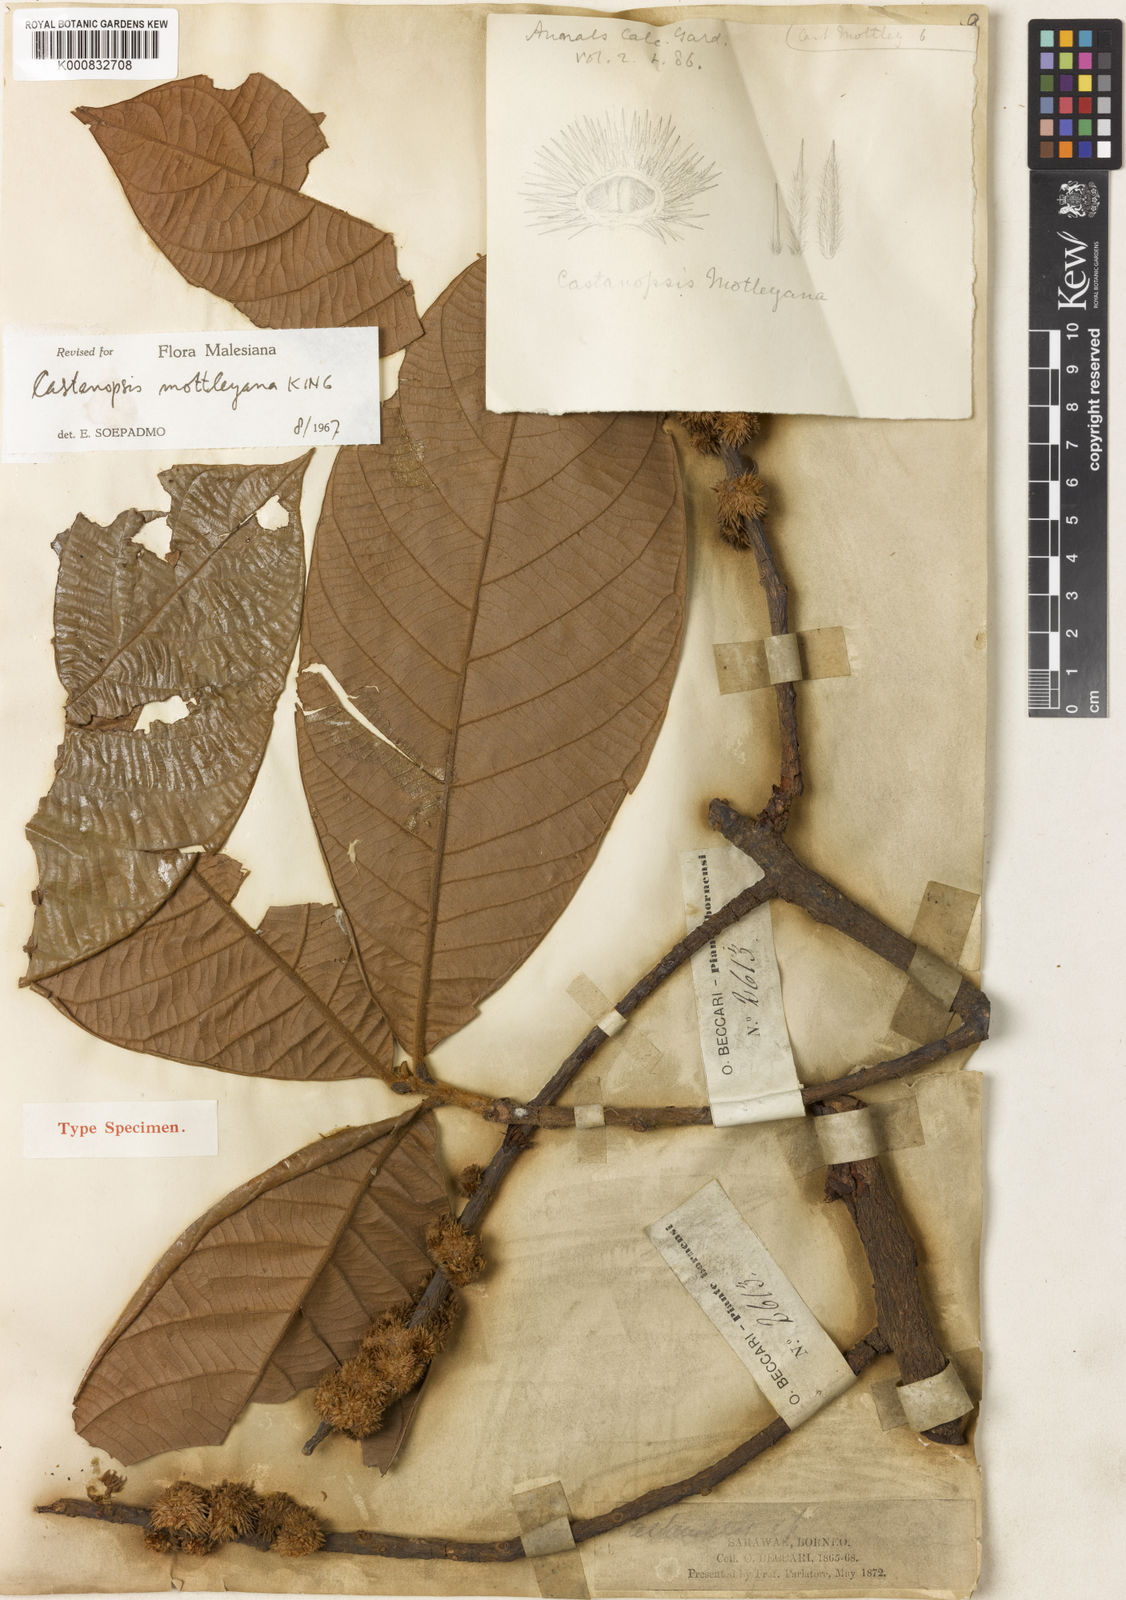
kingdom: Plantae
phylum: Tracheophyta
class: Magnoliopsida
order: Fagales
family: Fagaceae
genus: Castanopsis
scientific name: Castanopsis motleyana
